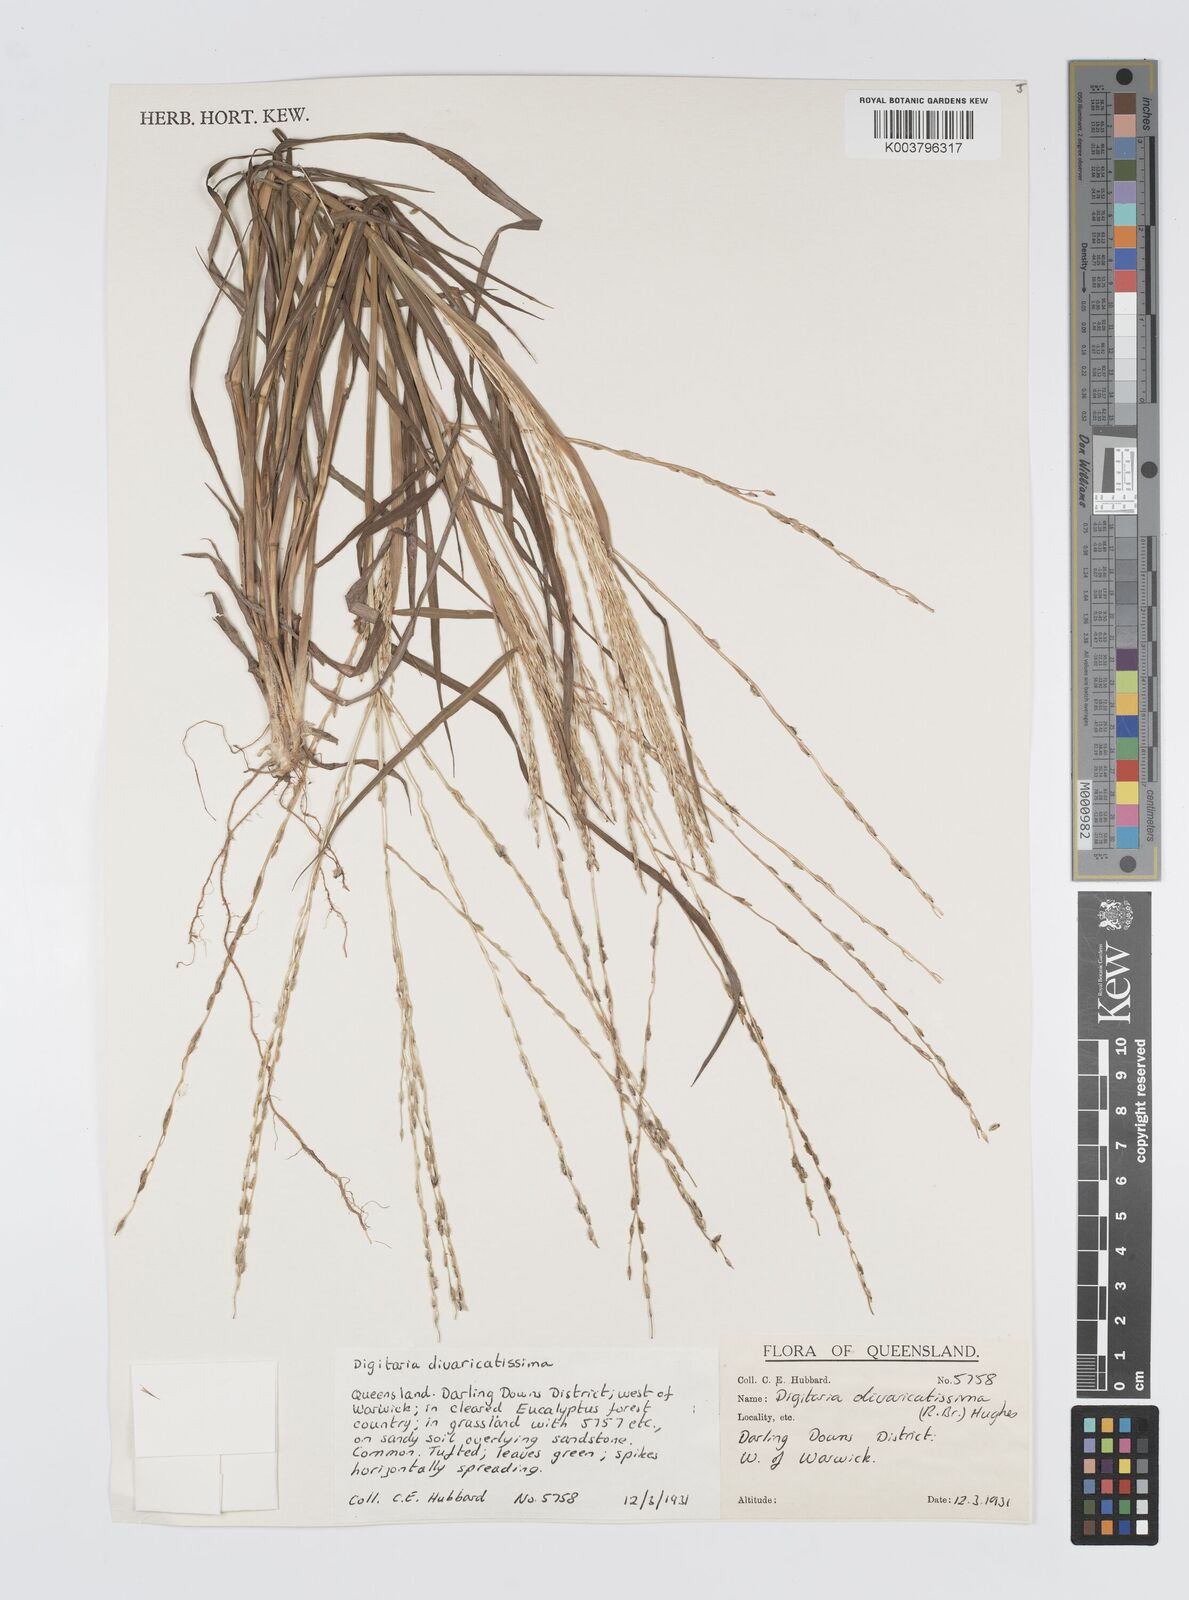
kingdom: Plantae
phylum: Tracheophyta
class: Liliopsida
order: Poales
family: Poaceae
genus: Digitaria
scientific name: Digitaria divaricatissima
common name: Crabgrass
